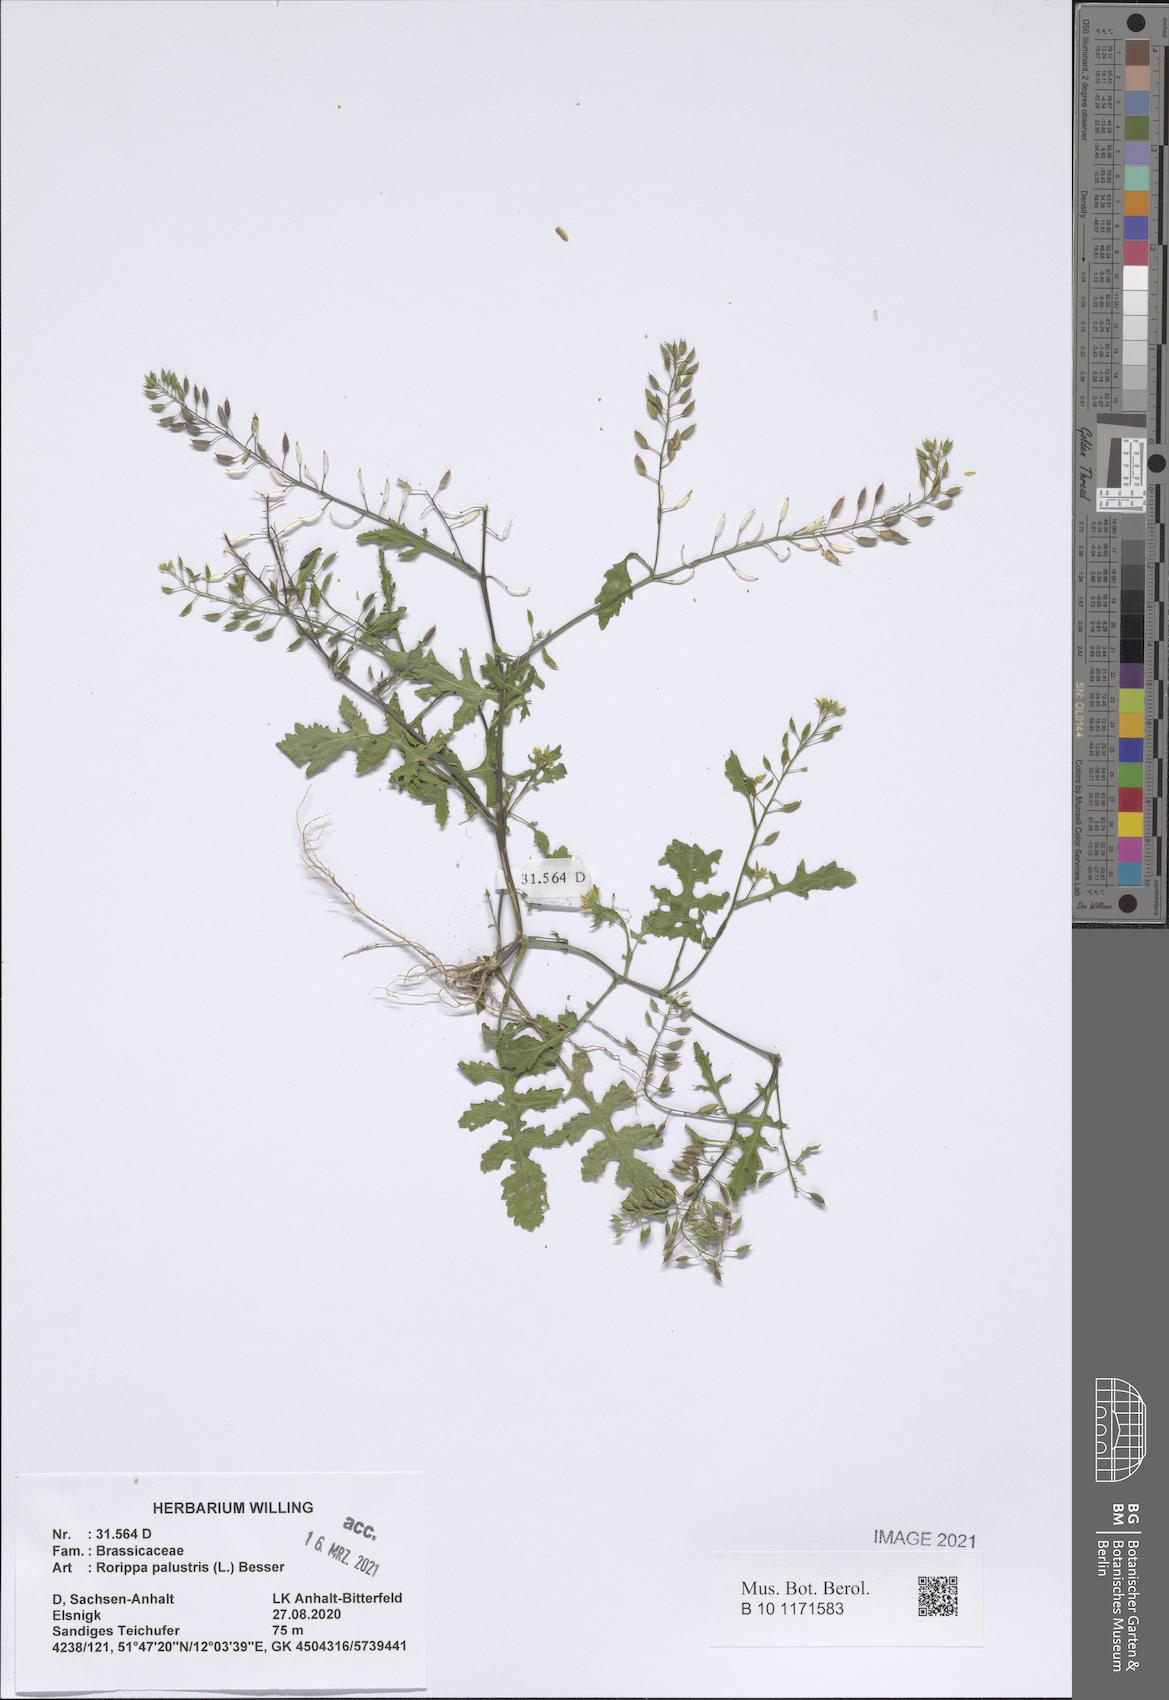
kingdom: Plantae
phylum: Tracheophyta
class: Magnoliopsida
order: Brassicales
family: Brassicaceae
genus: Rorippa
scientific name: Rorippa palustris
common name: Marsh yellow-cress
